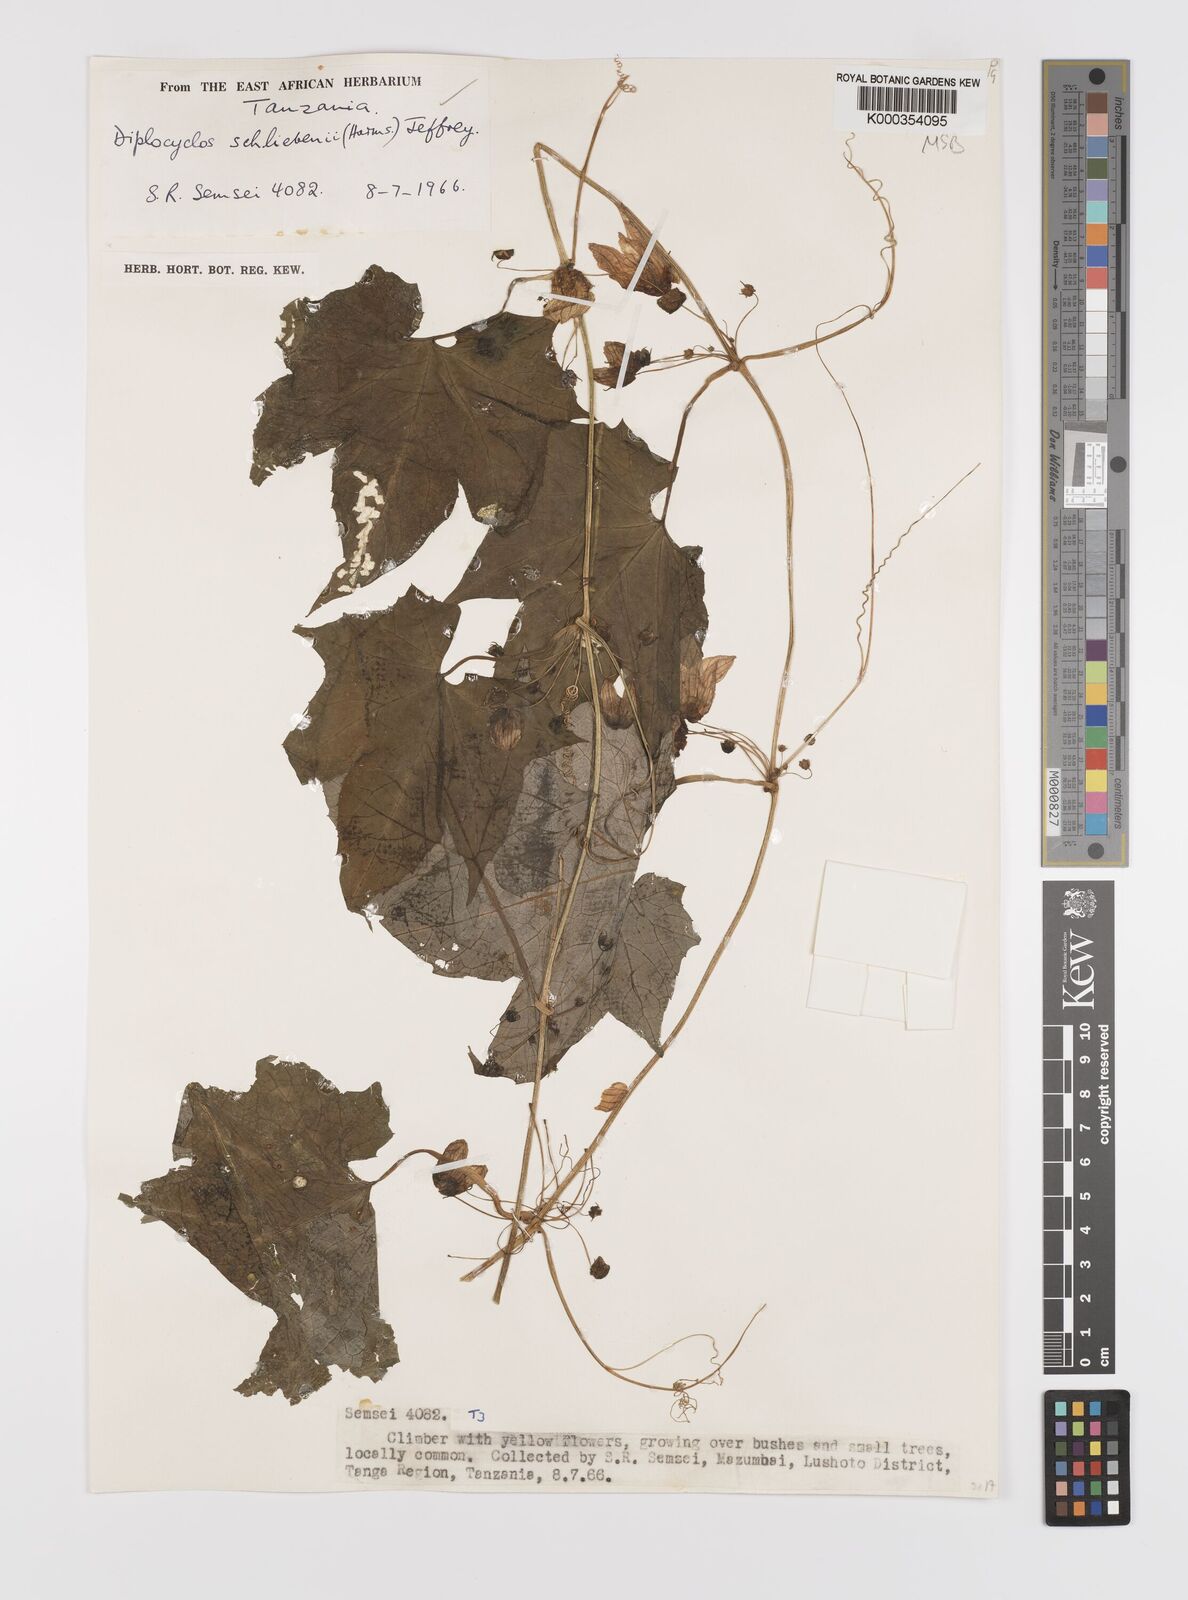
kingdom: Plantae
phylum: Tracheophyta
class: Magnoliopsida
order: Cucurbitales
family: Cucurbitaceae
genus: Diplocyclos
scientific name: Diplocyclos schliebenii
